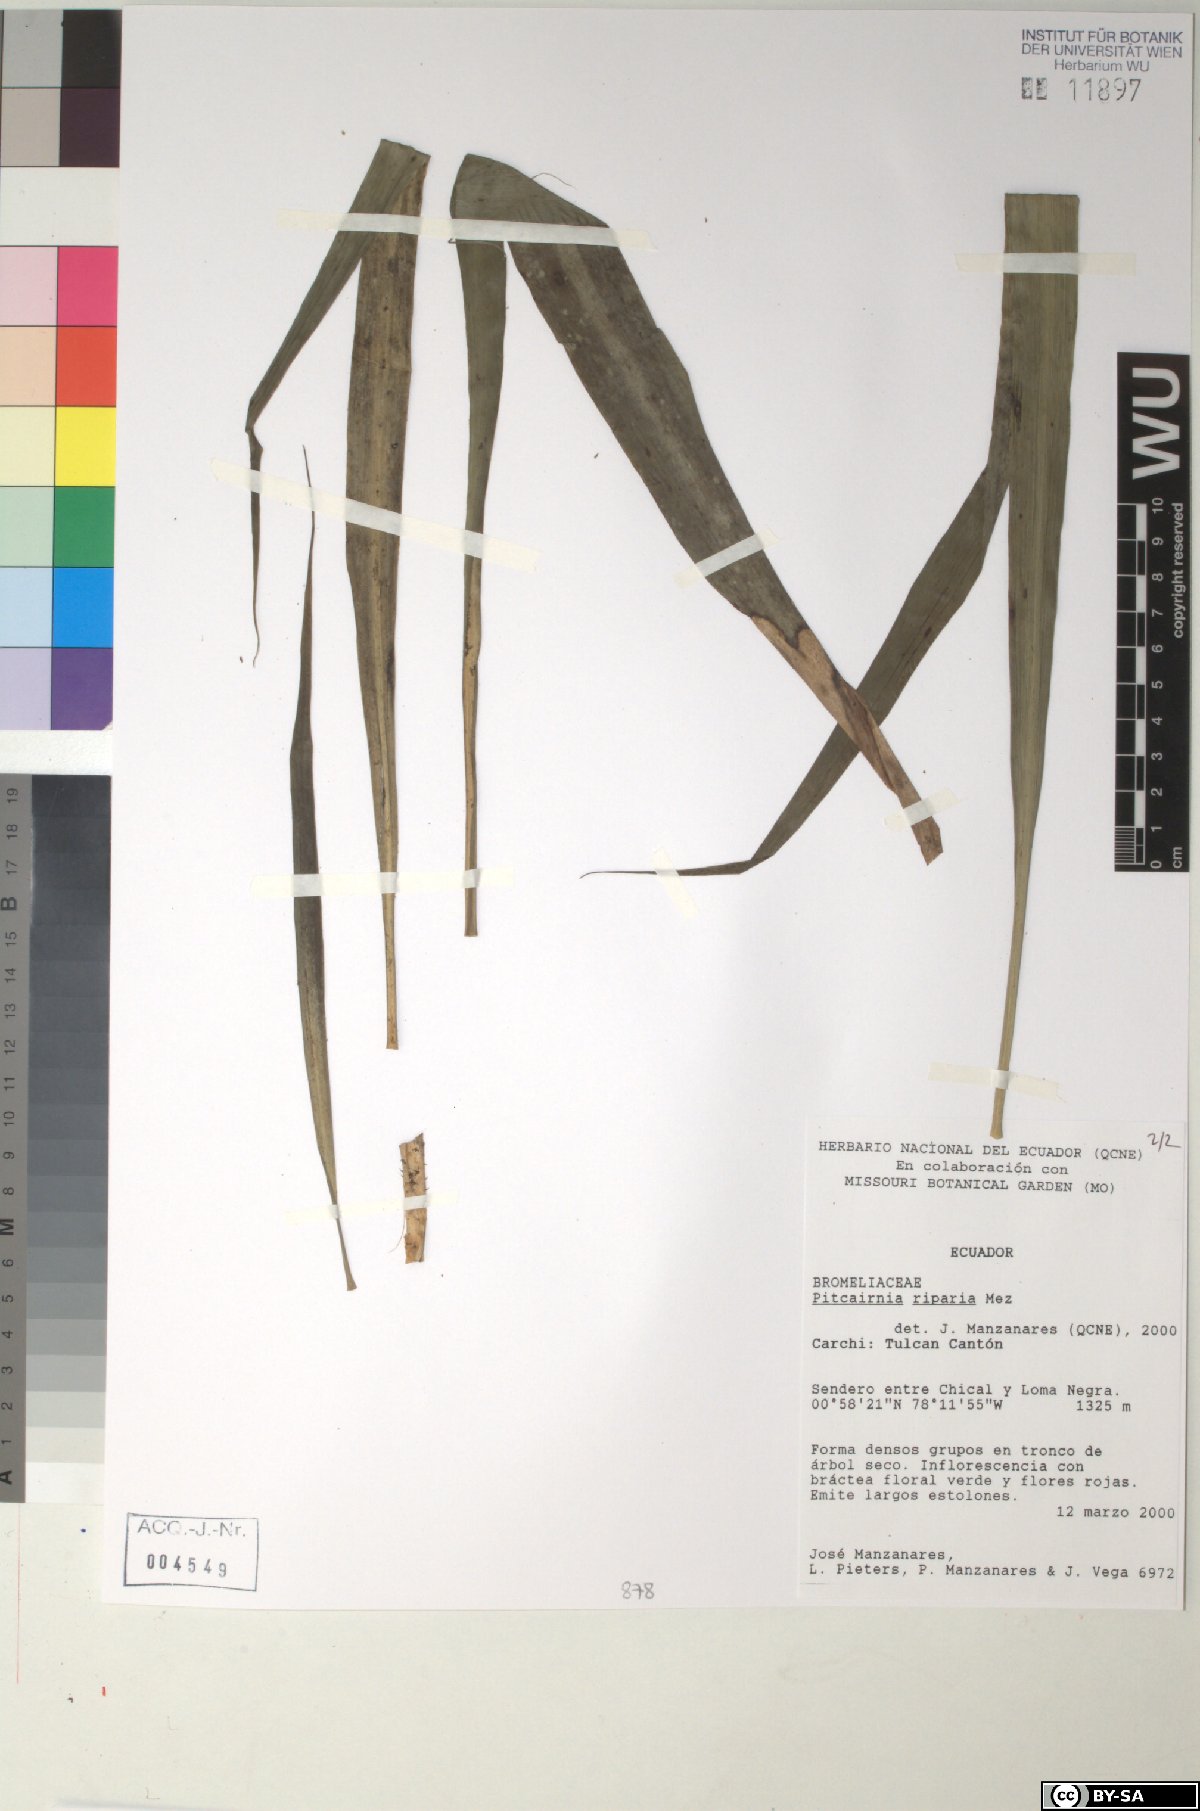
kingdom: Plantae
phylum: Tracheophyta
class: Liliopsida
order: Poales
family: Bromeliaceae
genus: Pitcairnia
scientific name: Pitcairnia riparia
